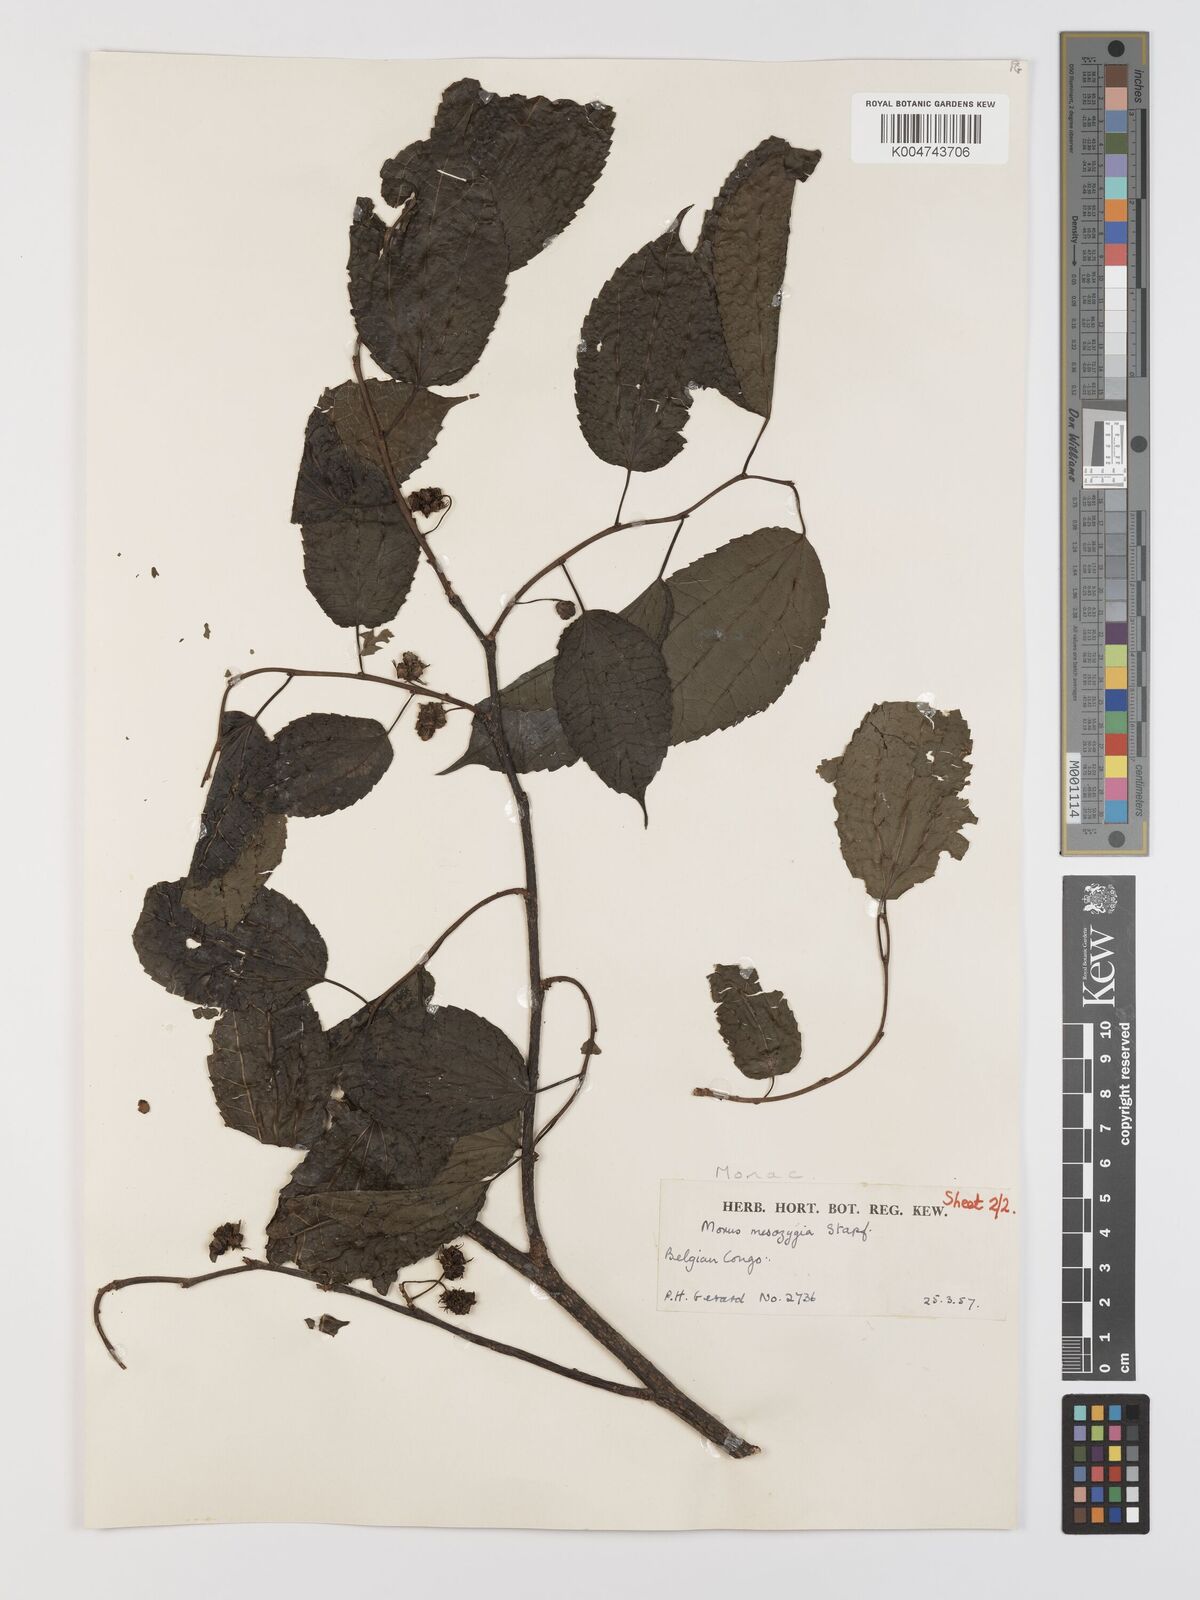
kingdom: Plantae
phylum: Tracheophyta
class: Magnoliopsida
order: Rosales
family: Moraceae
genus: Afromorus
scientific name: Afromorus mesozygia
